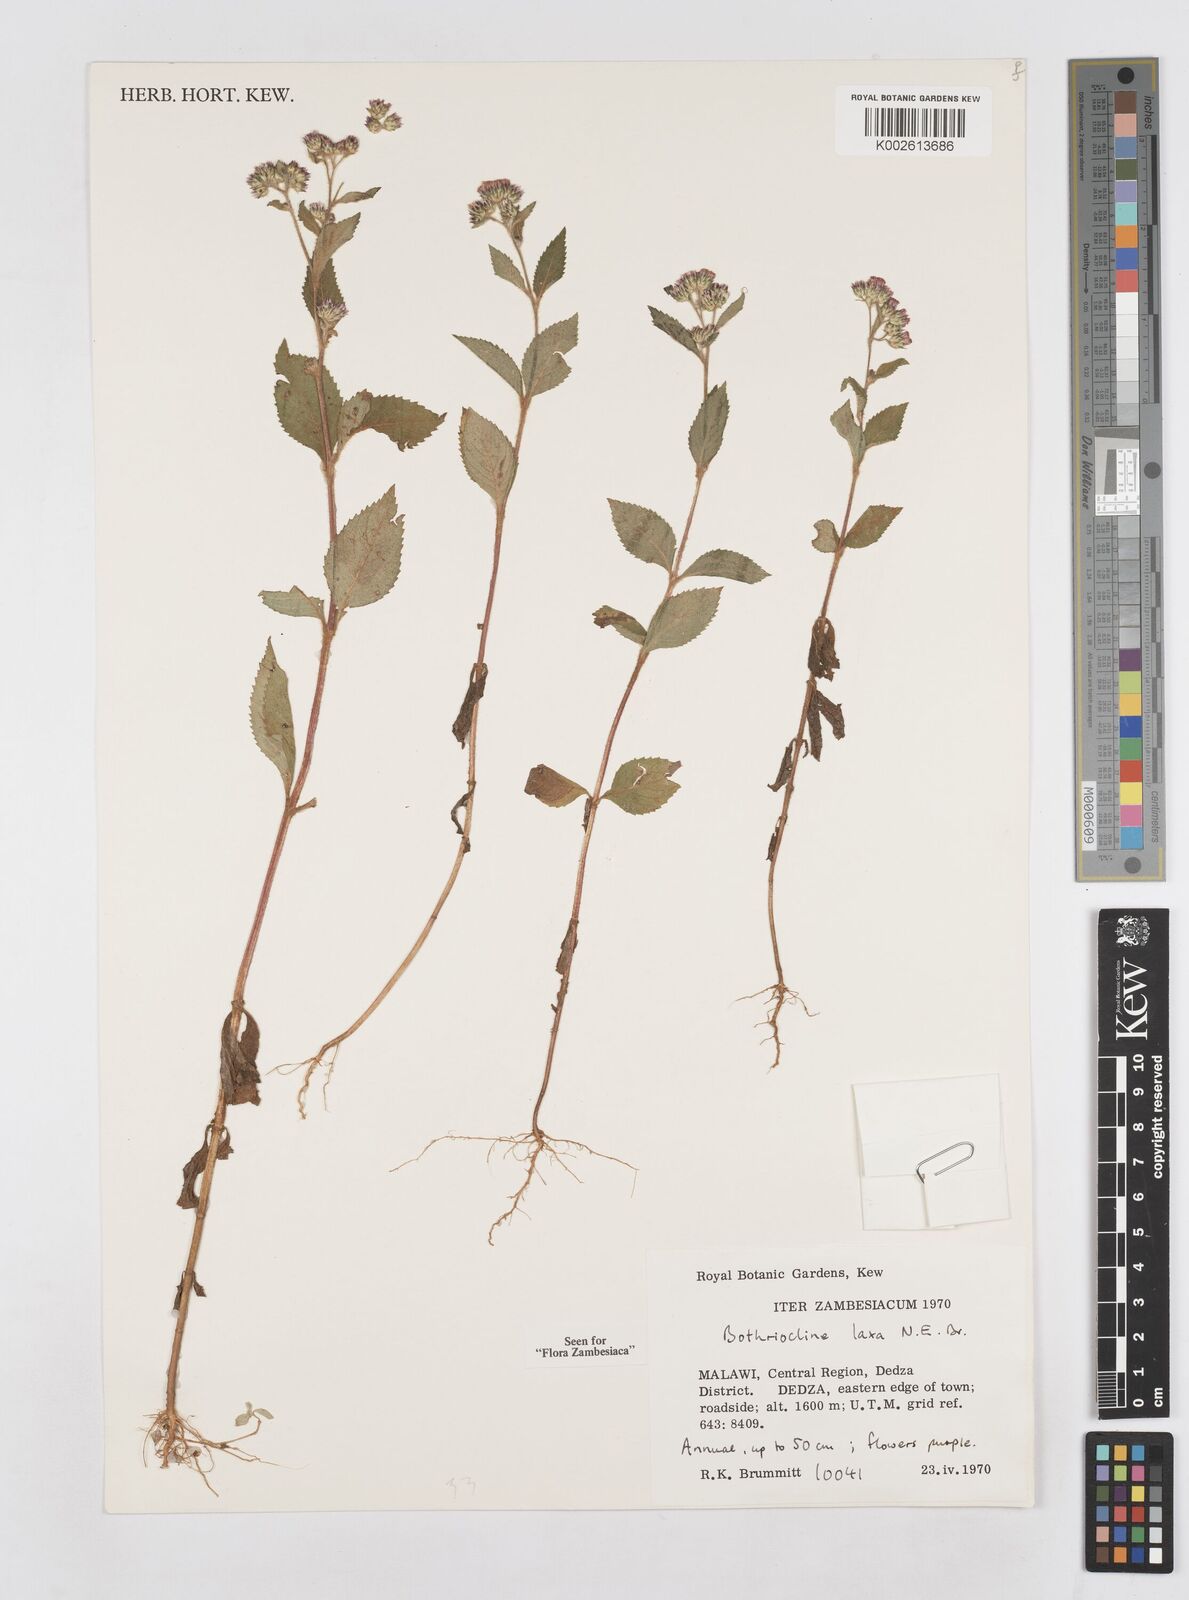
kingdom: Plantae
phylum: Tracheophyta
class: Magnoliopsida
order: Asterales
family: Asteraceae
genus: Bothriocline
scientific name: Bothriocline laxa
